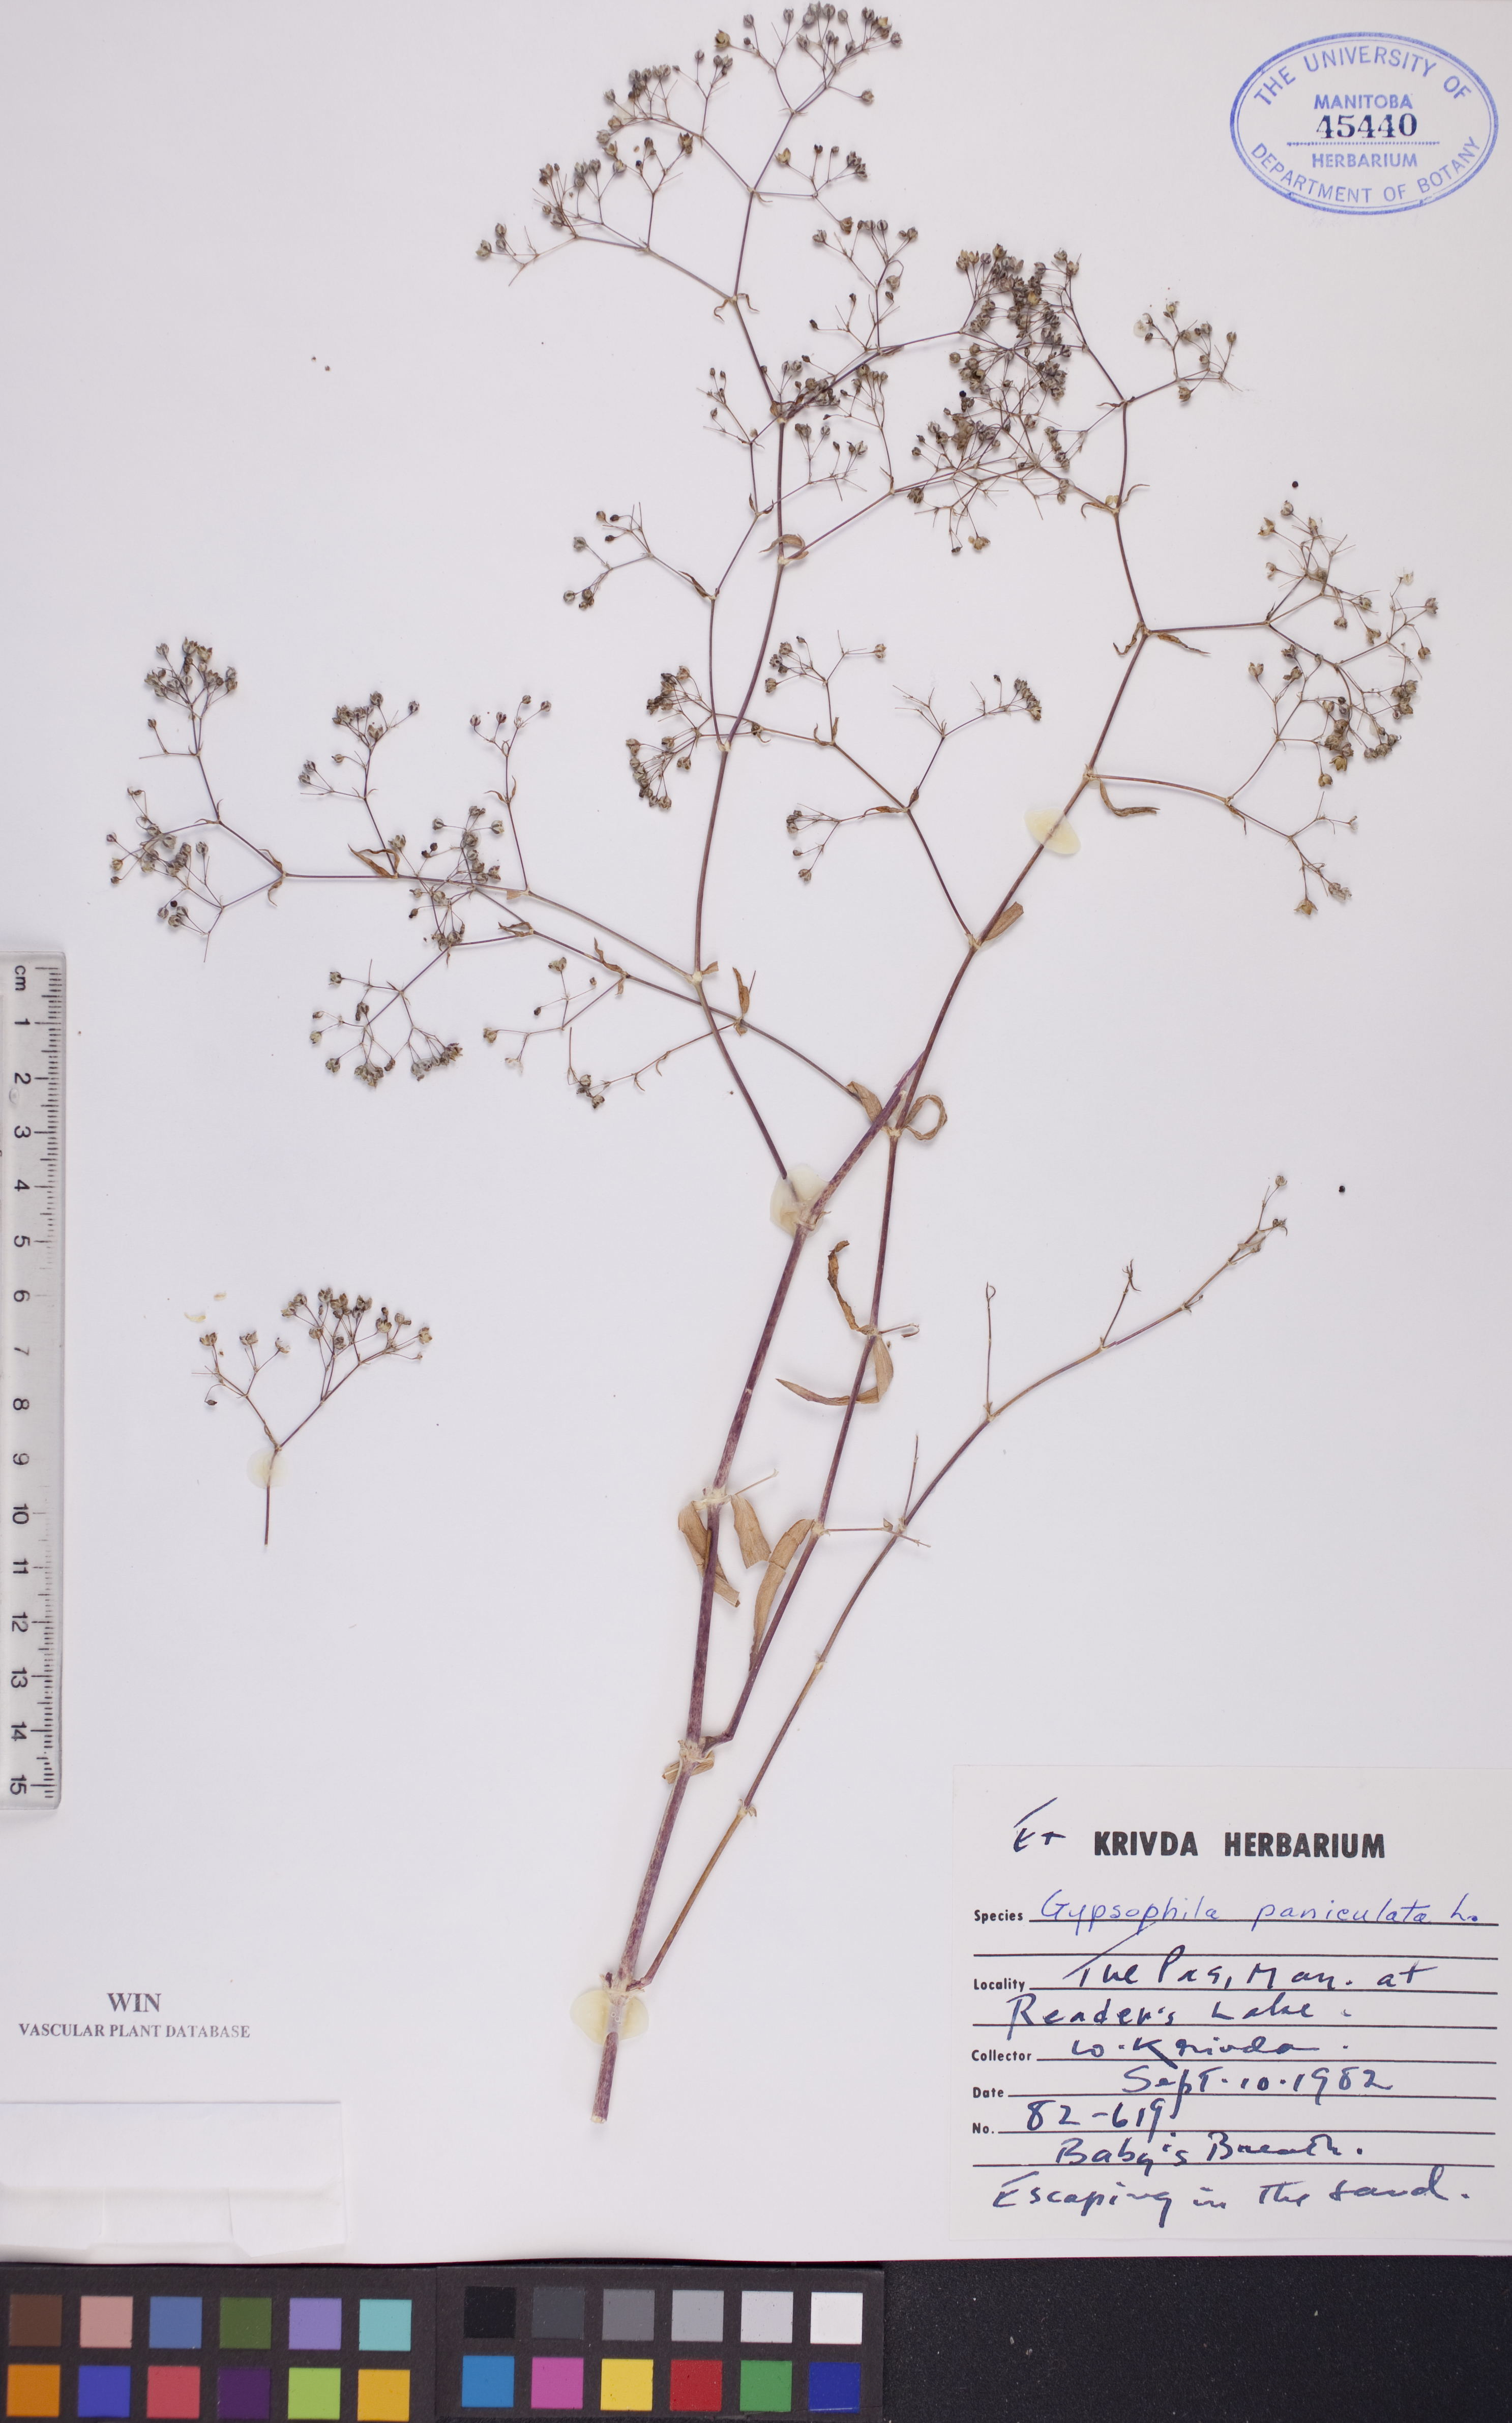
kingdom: Plantae
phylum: Tracheophyta
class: Magnoliopsida
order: Caryophyllales
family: Caryophyllaceae
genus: Gypsophila
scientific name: Gypsophila paniculata
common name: Baby's-breath
